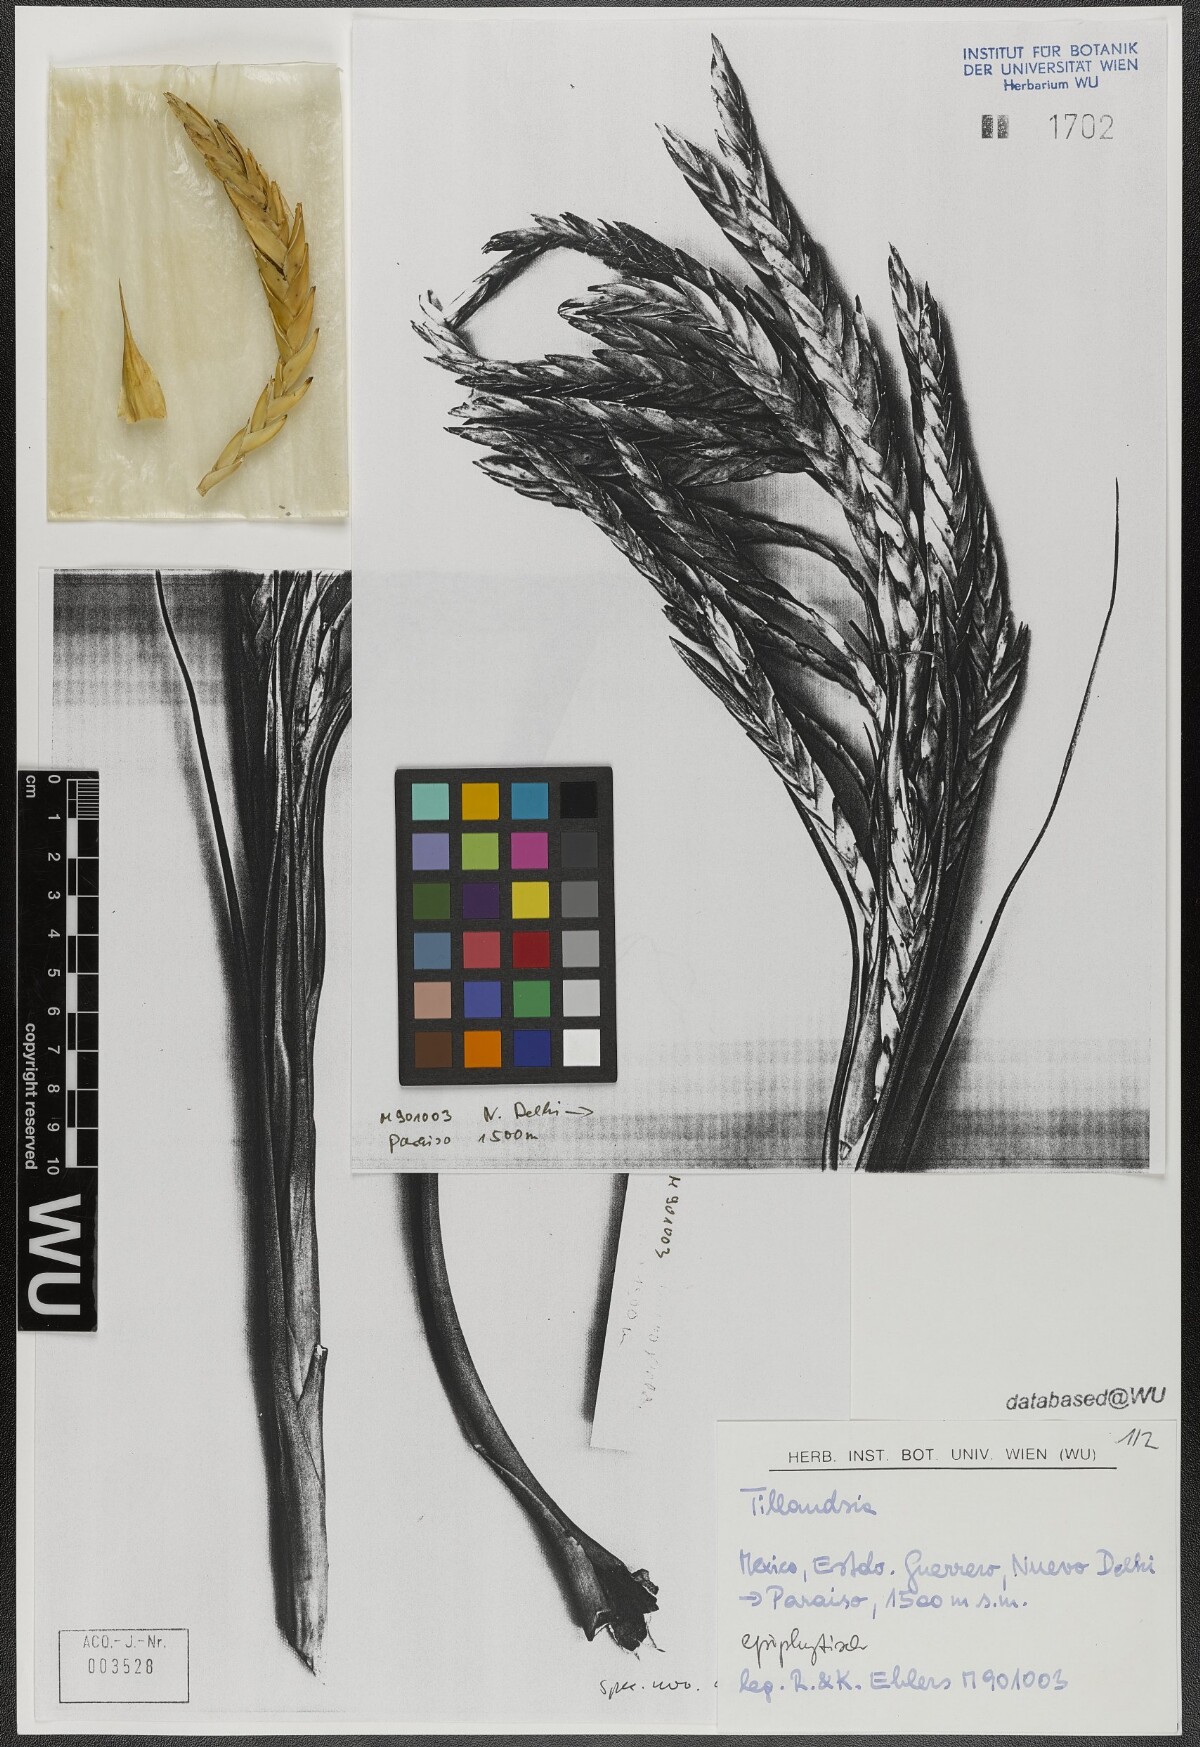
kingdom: Plantae
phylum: Tracheophyta
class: Liliopsida
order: Poales
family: Bromeliaceae
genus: Tillandsia
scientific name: Tillandsia fasciculata
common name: Giant airplant
